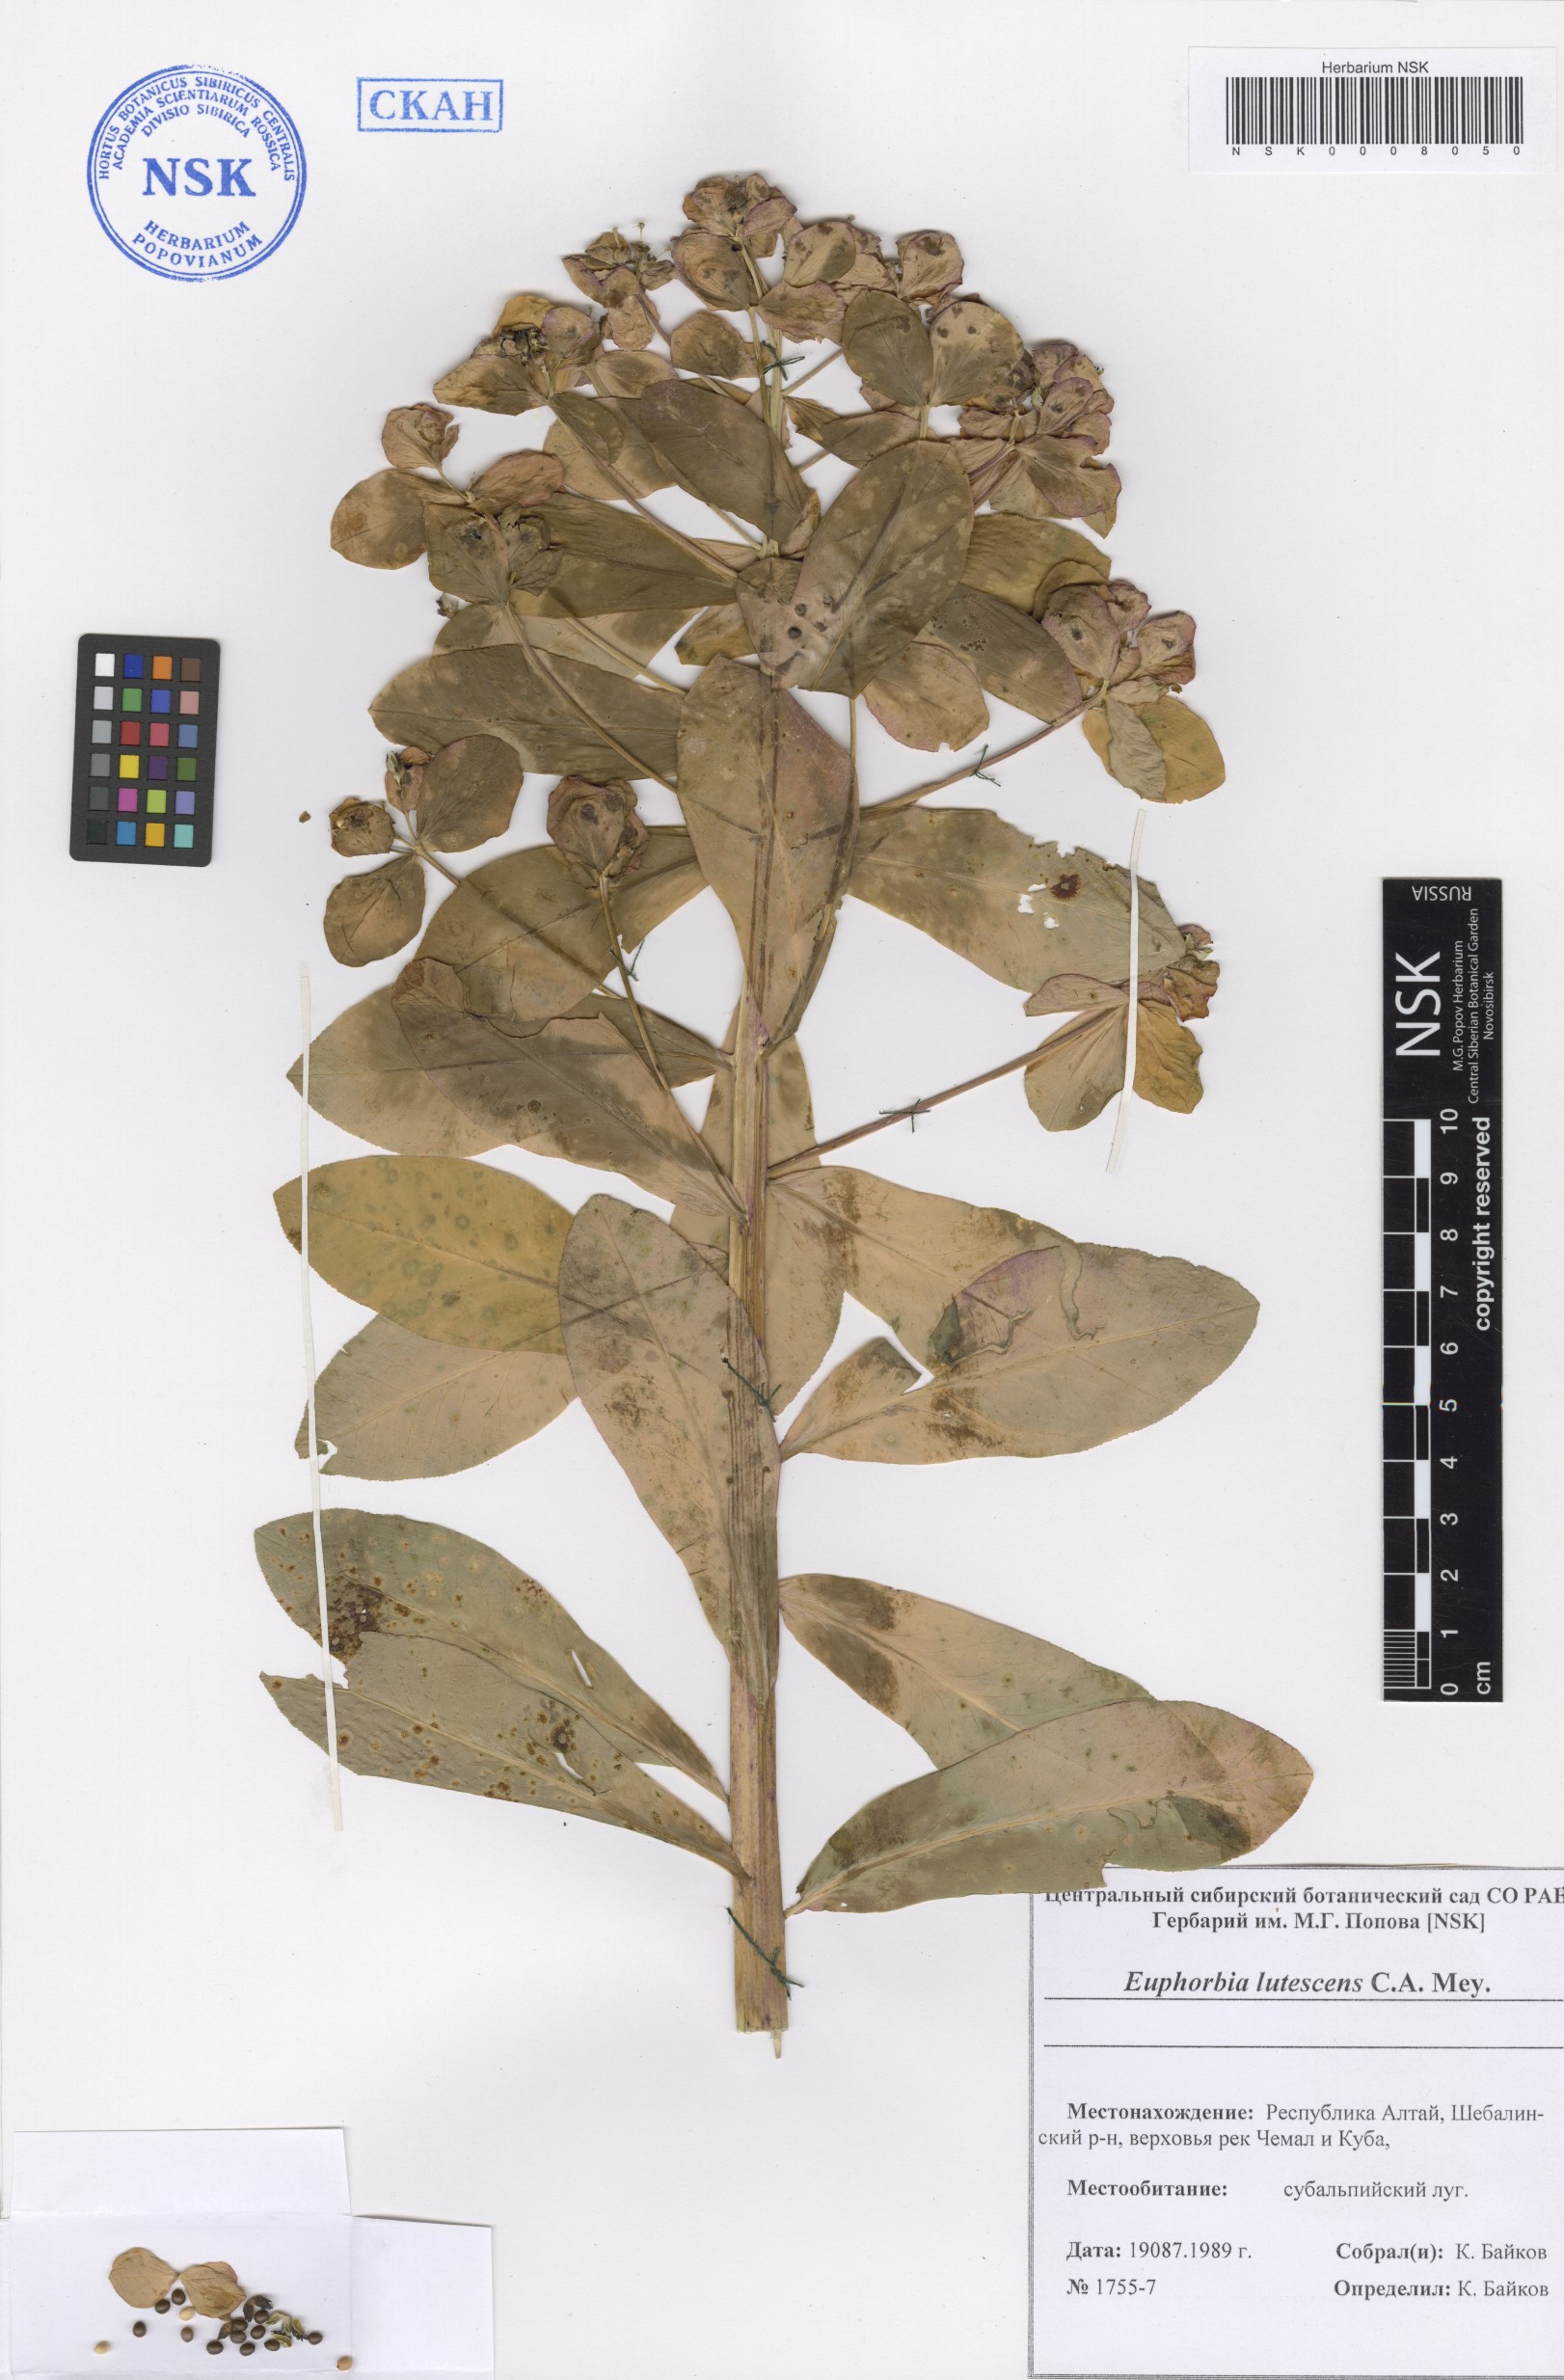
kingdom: Plantae
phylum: Tracheophyta
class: Magnoliopsida
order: Malpighiales
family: Euphorbiaceae
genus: Euphorbia
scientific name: Euphorbia pilosa
